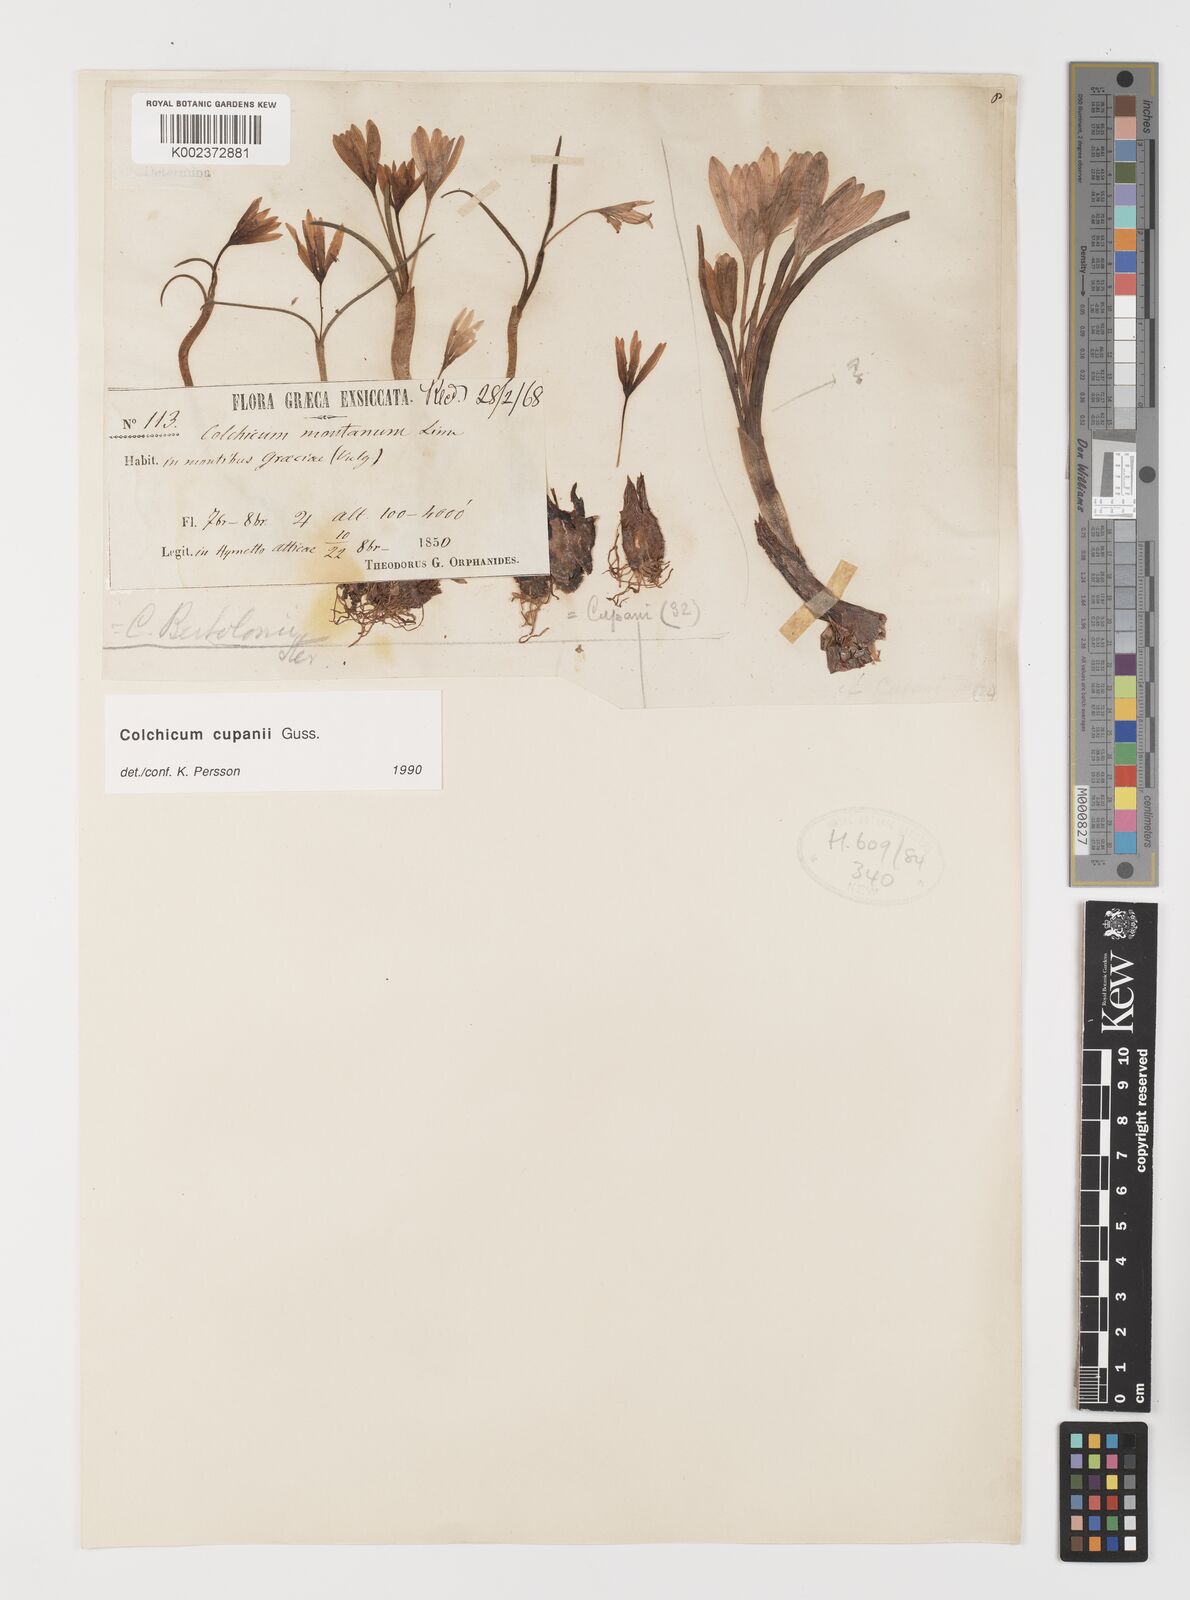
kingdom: Plantae
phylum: Tracheophyta
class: Liliopsida
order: Liliales
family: Colchicaceae
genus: Colchicum
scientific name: Colchicum cupanii
